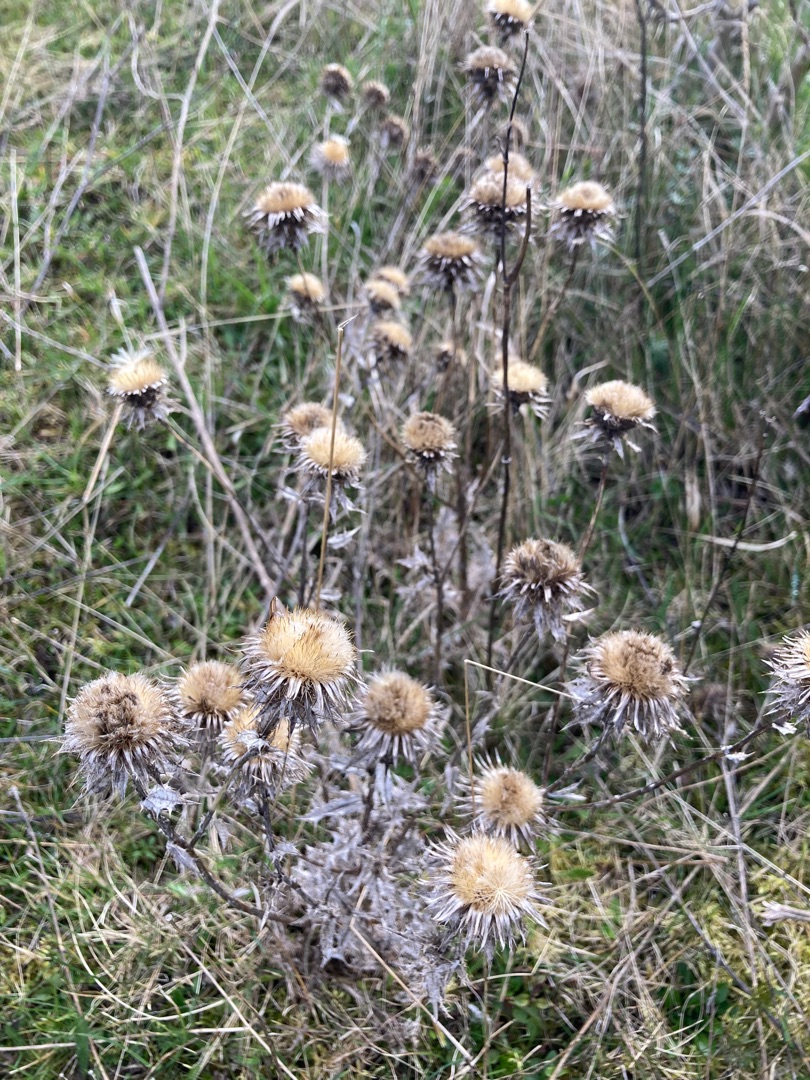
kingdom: Plantae
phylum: Tracheophyta
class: Magnoliopsida
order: Asterales
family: Asteraceae
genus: Carlina
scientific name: Carlina vulgaris
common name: Bakketidsel
